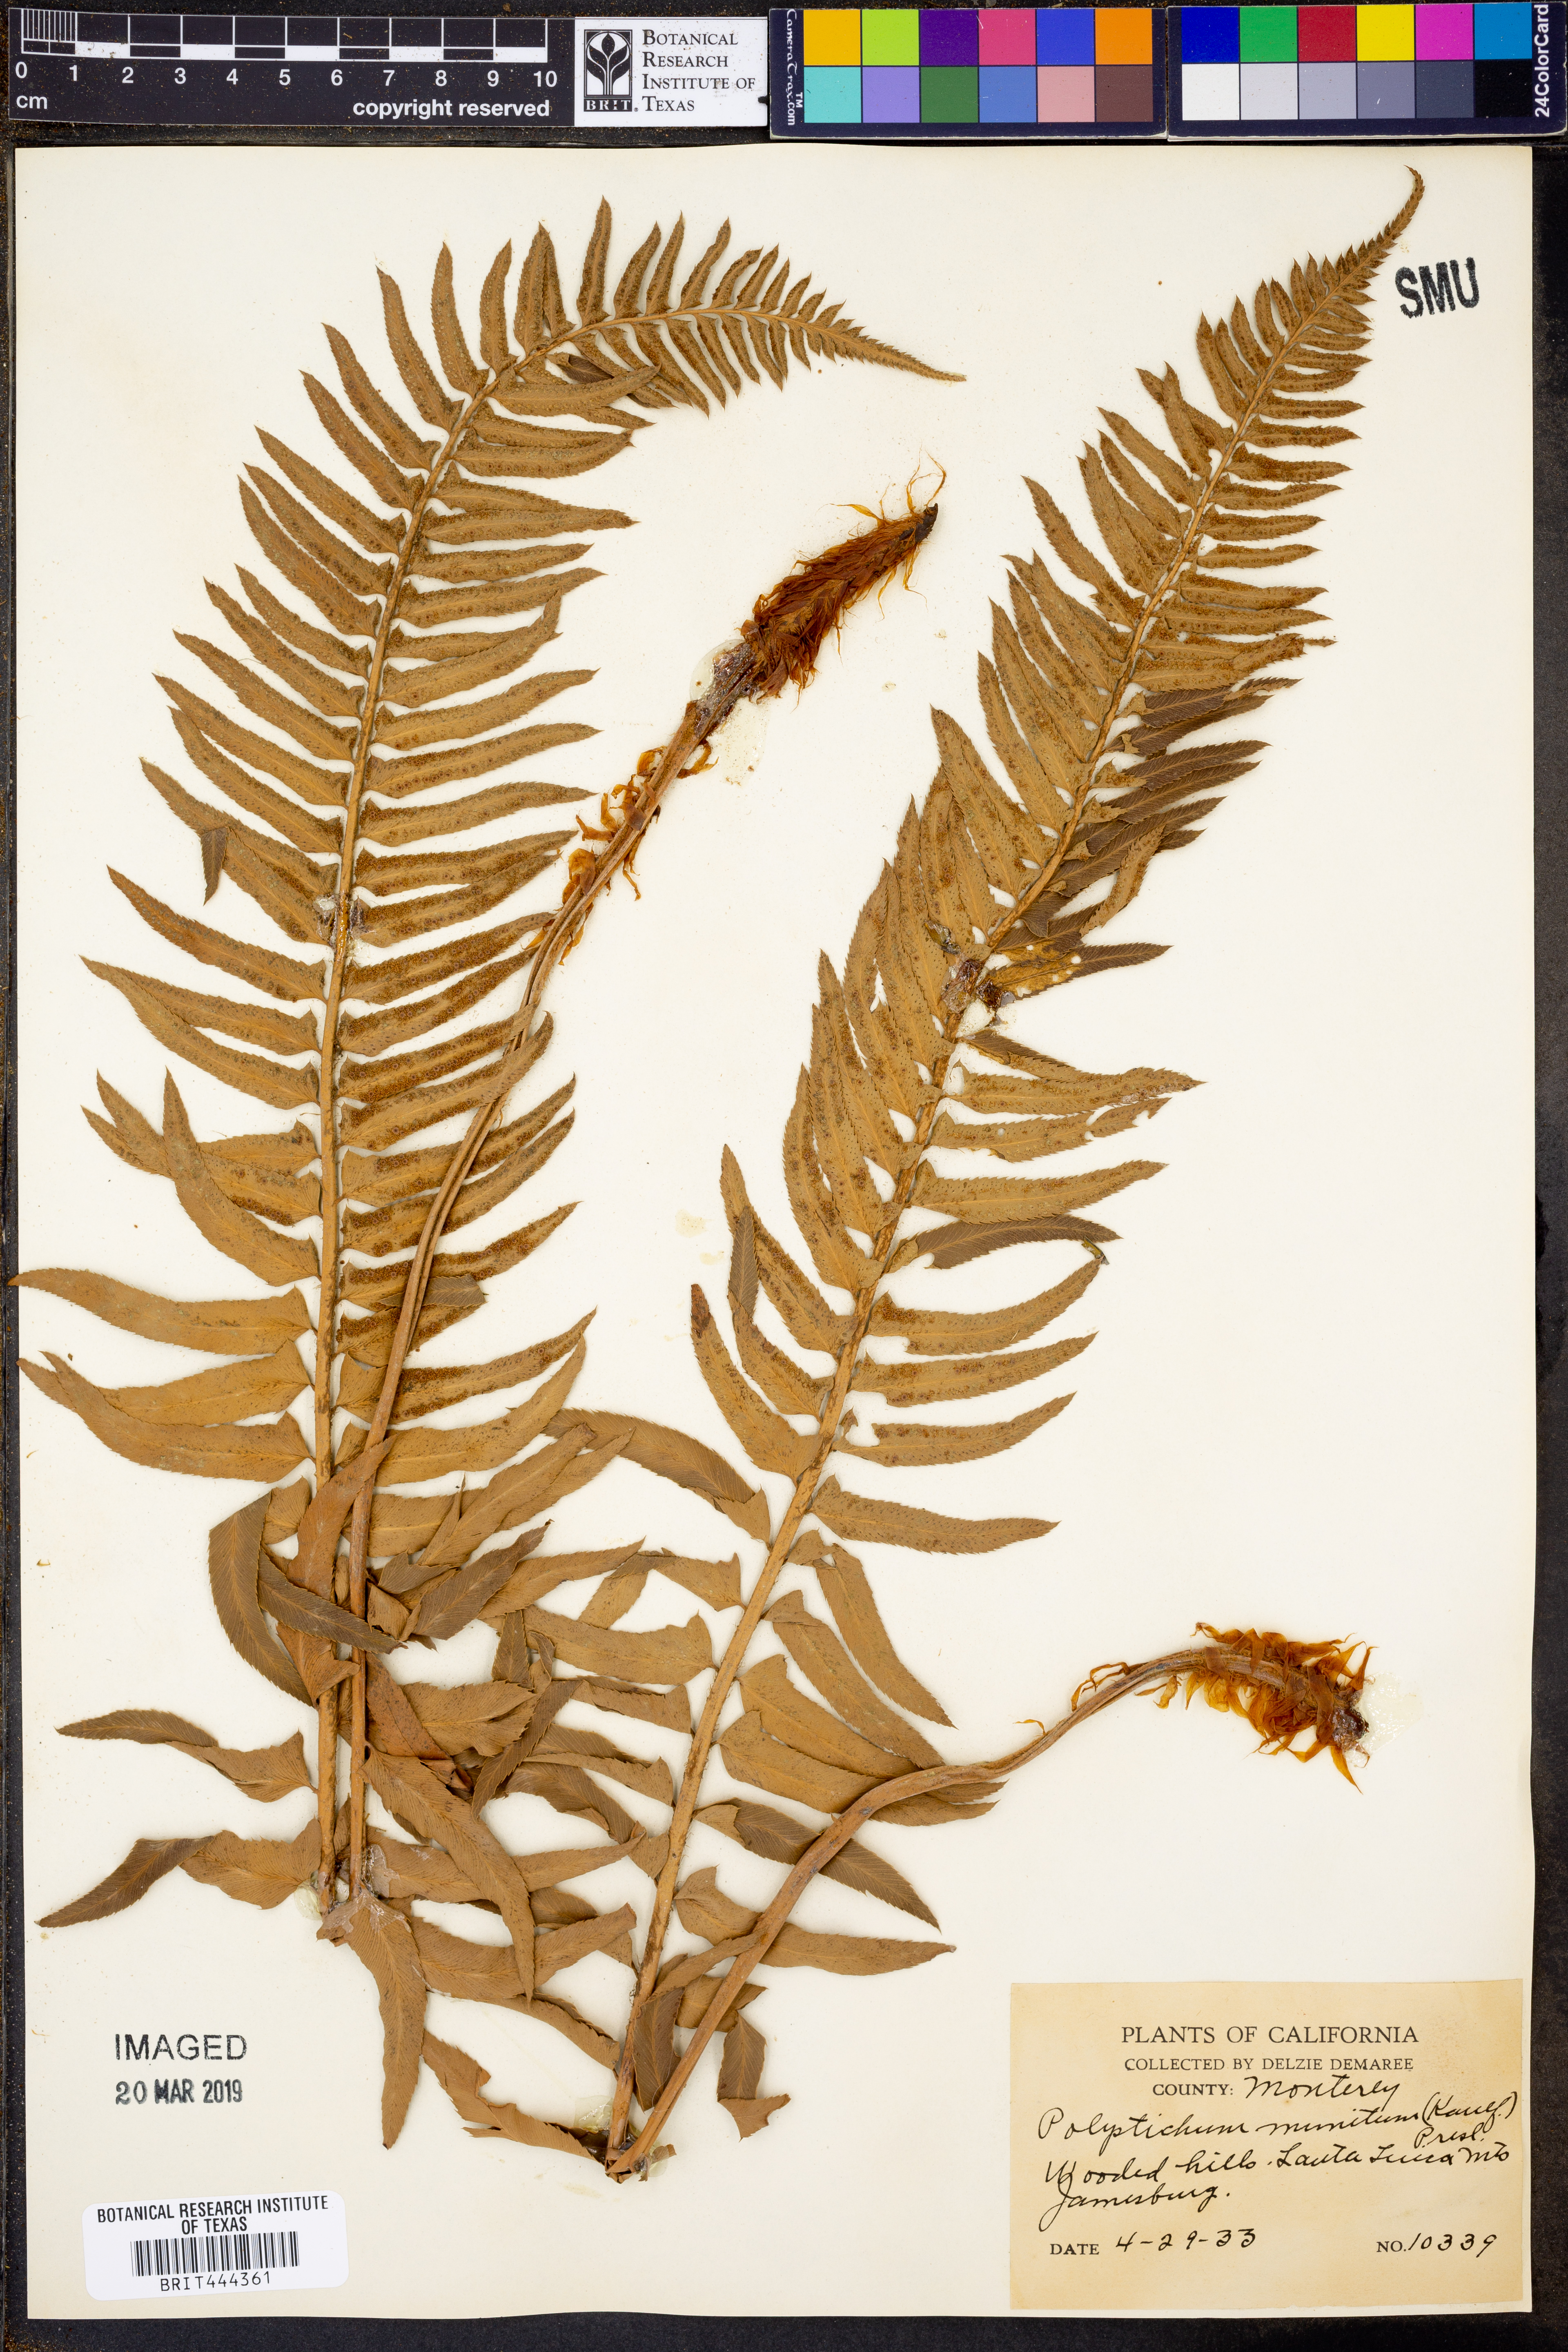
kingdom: Plantae
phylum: Tracheophyta
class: Polypodiopsida
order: Polypodiales
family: Dryopteridaceae
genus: Polystichum
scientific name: Polystichum munitum
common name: Western sword-fern
